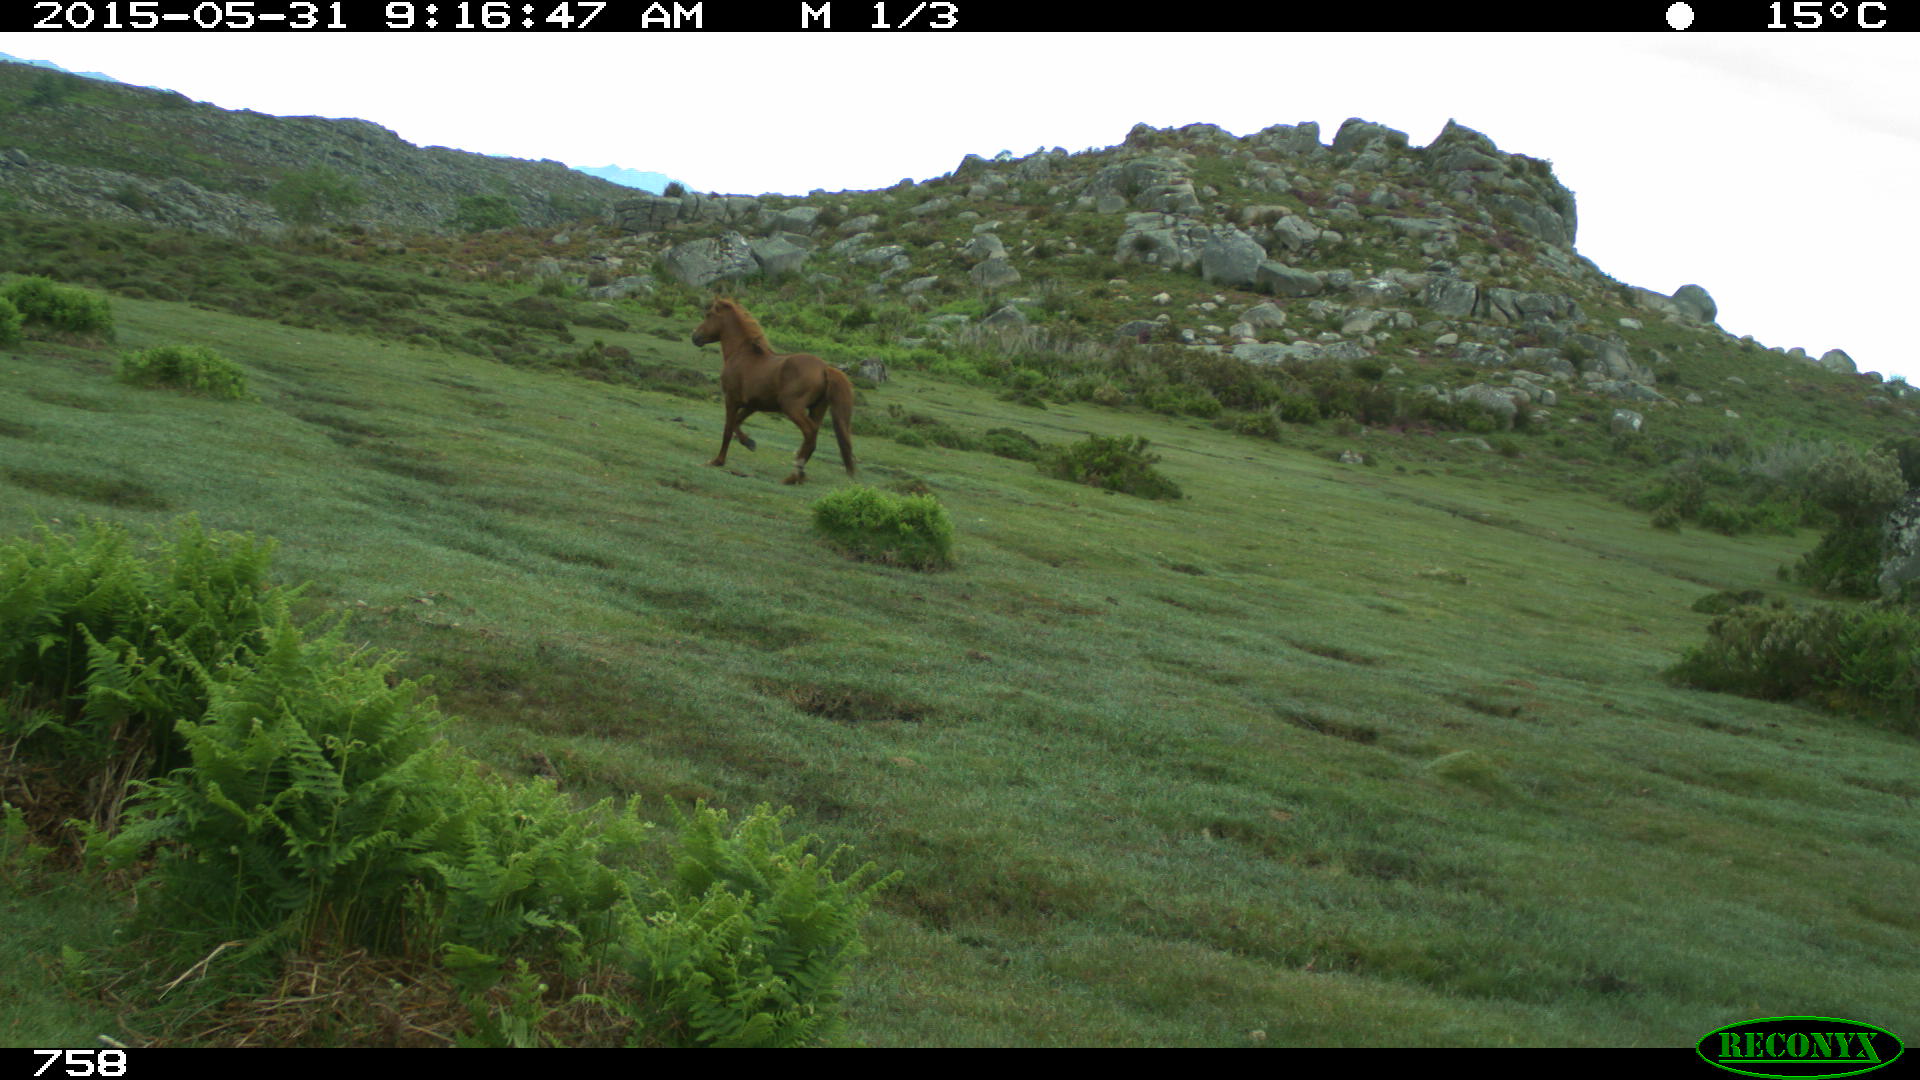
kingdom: Animalia
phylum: Chordata
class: Mammalia
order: Perissodactyla
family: Equidae
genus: Equus
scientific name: Equus caballus
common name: Horse
